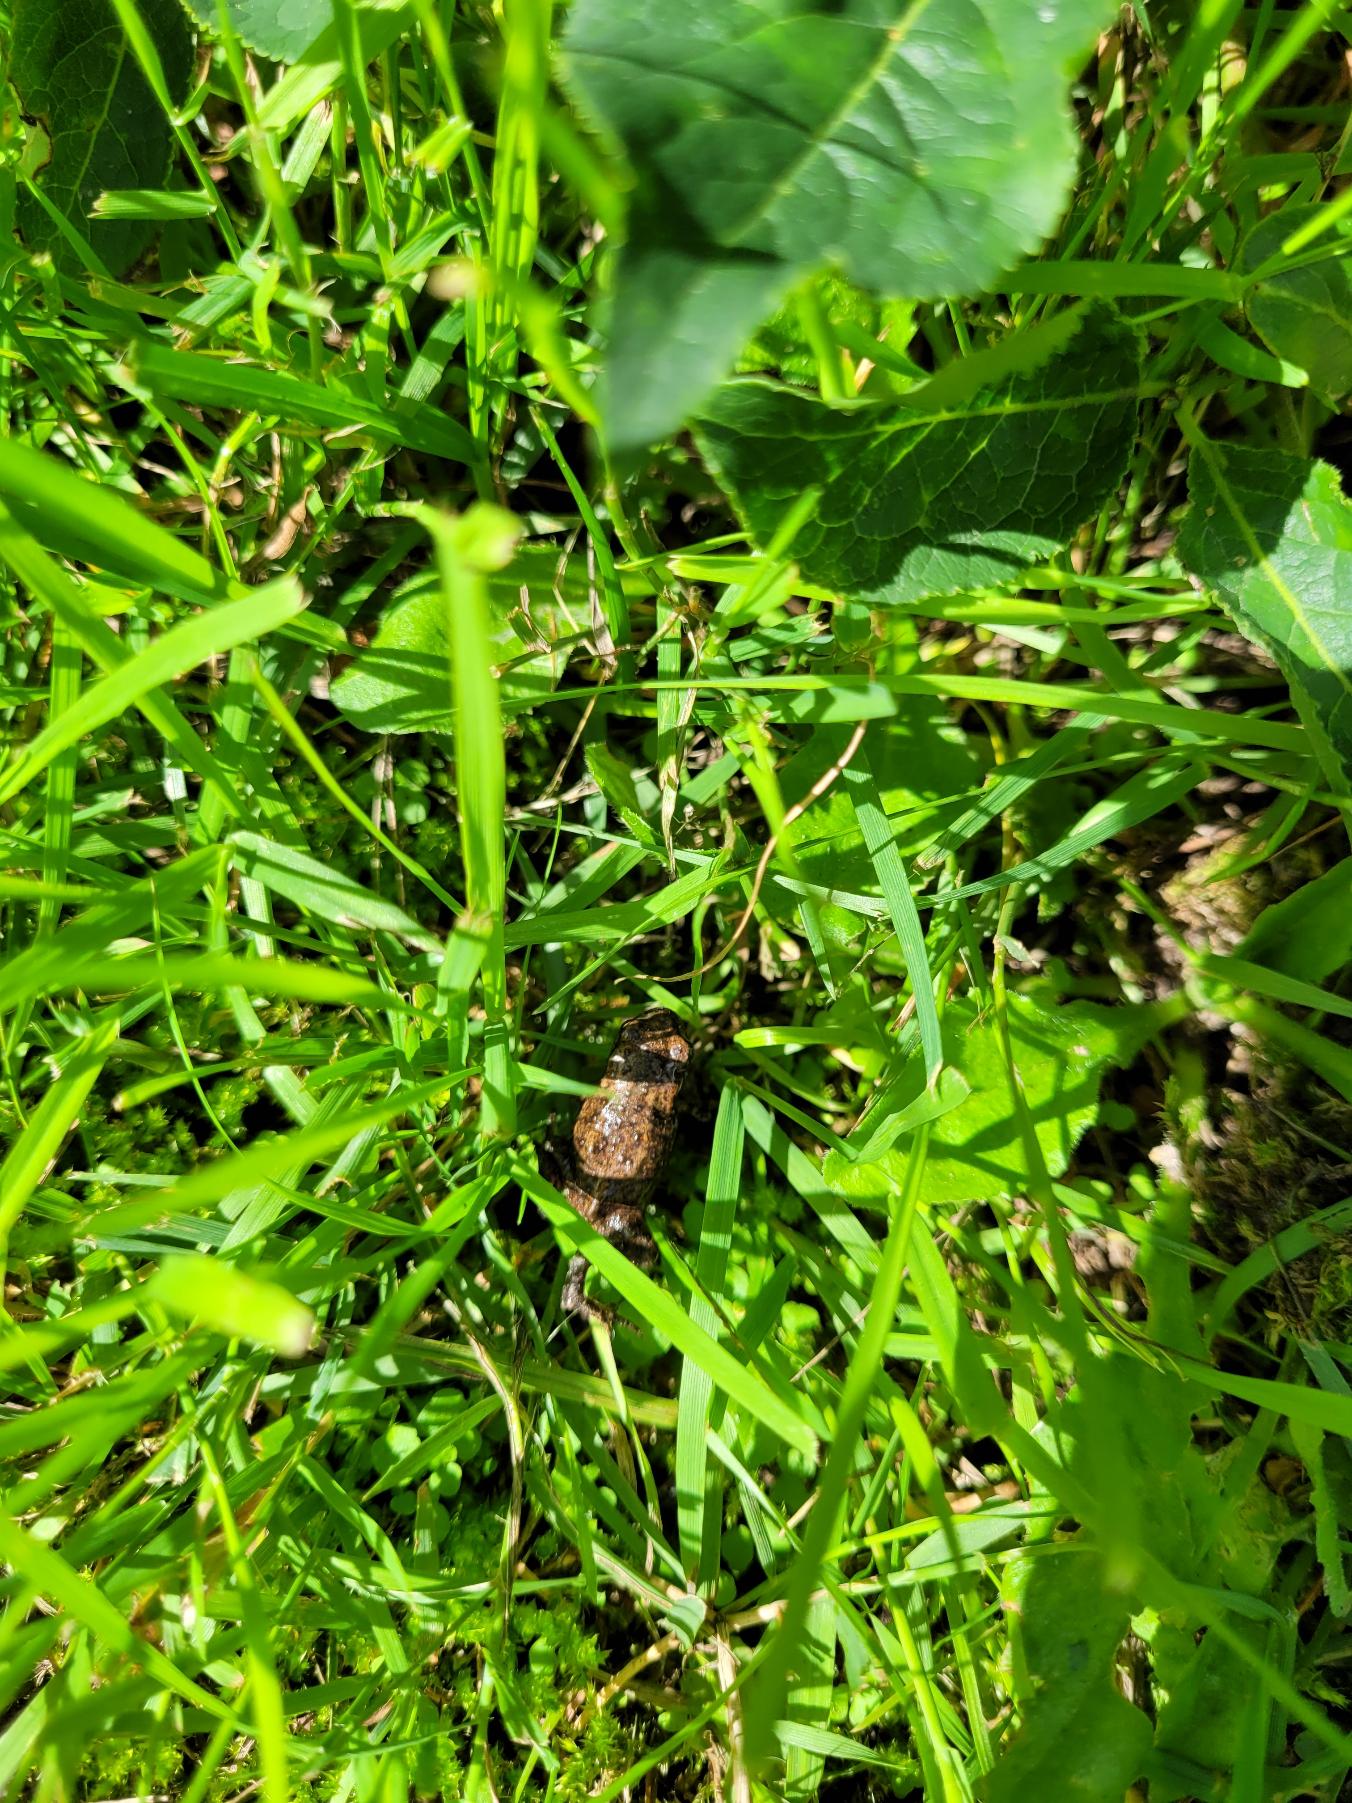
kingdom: Animalia
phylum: Chordata
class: Amphibia
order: Anura
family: Bufonidae
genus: Bufo
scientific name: Bufo bufo
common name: Skrubtudse
